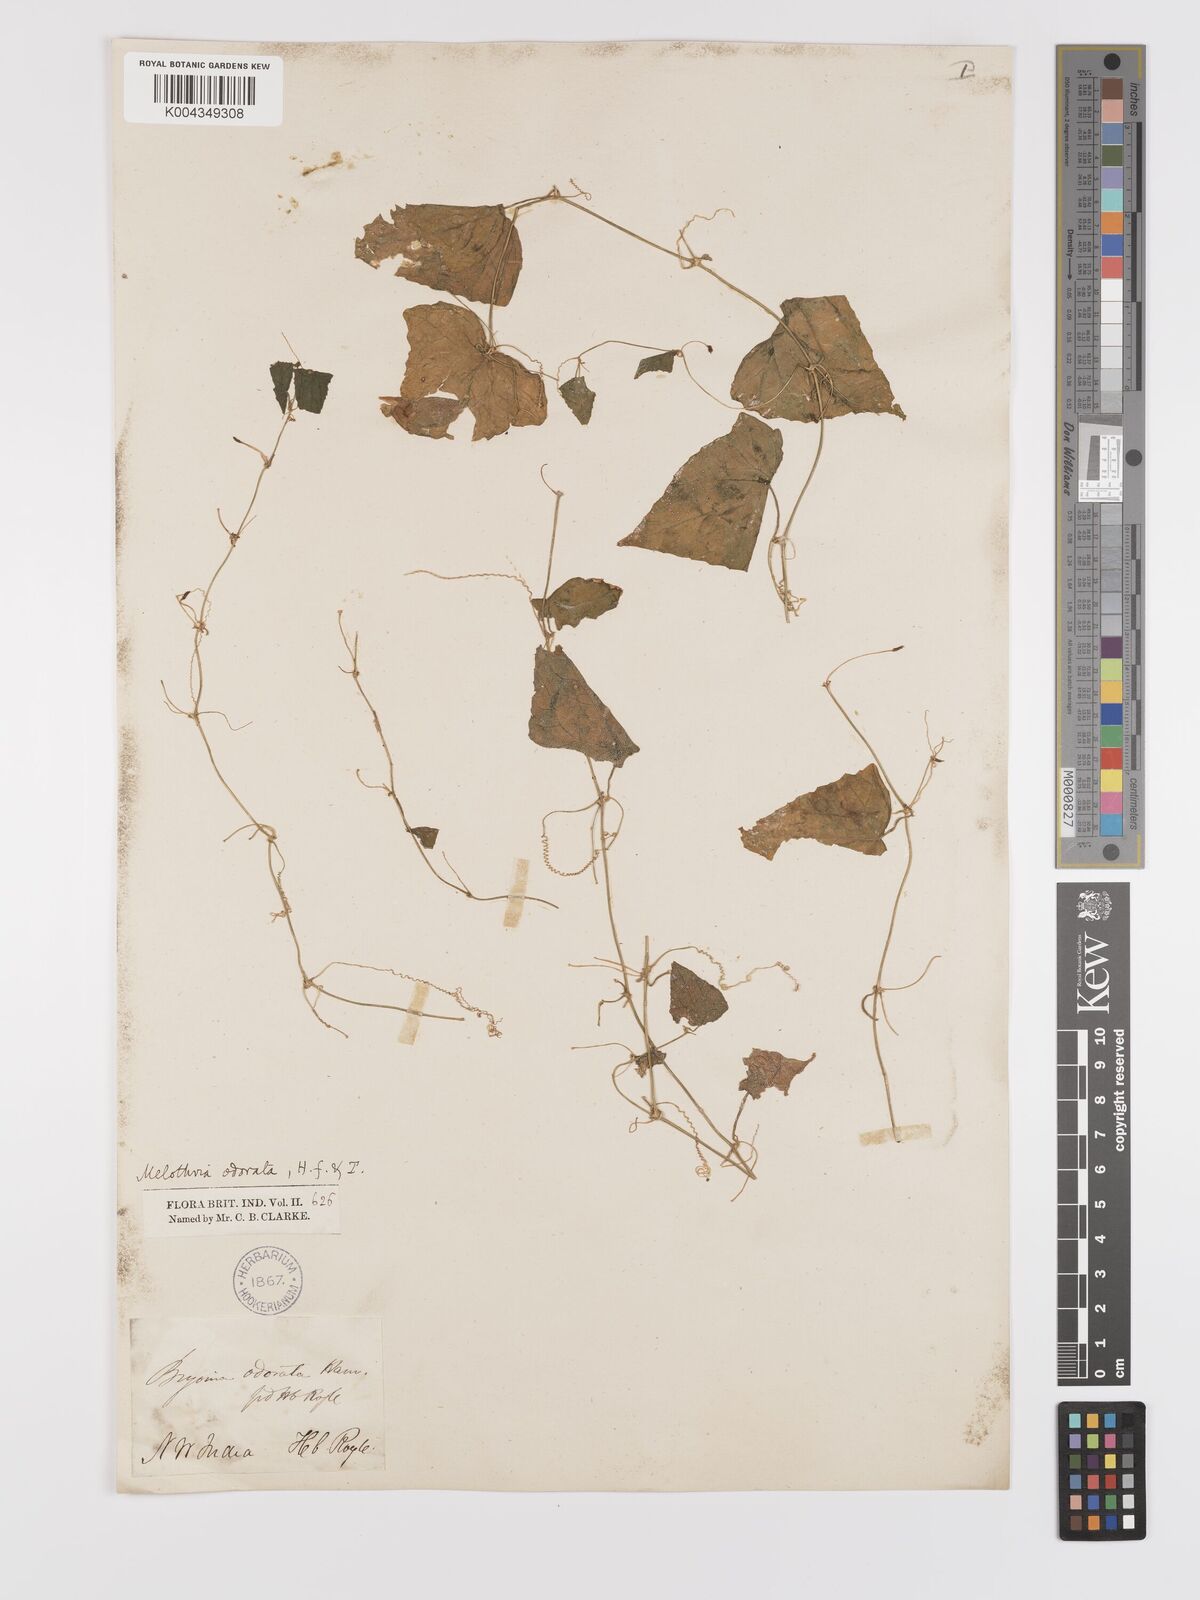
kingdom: Plantae
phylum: Tracheophyta
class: Magnoliopsida
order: Cucurbitales
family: Cucurbitaceae
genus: Zehneria
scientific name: Zehneria odorata
